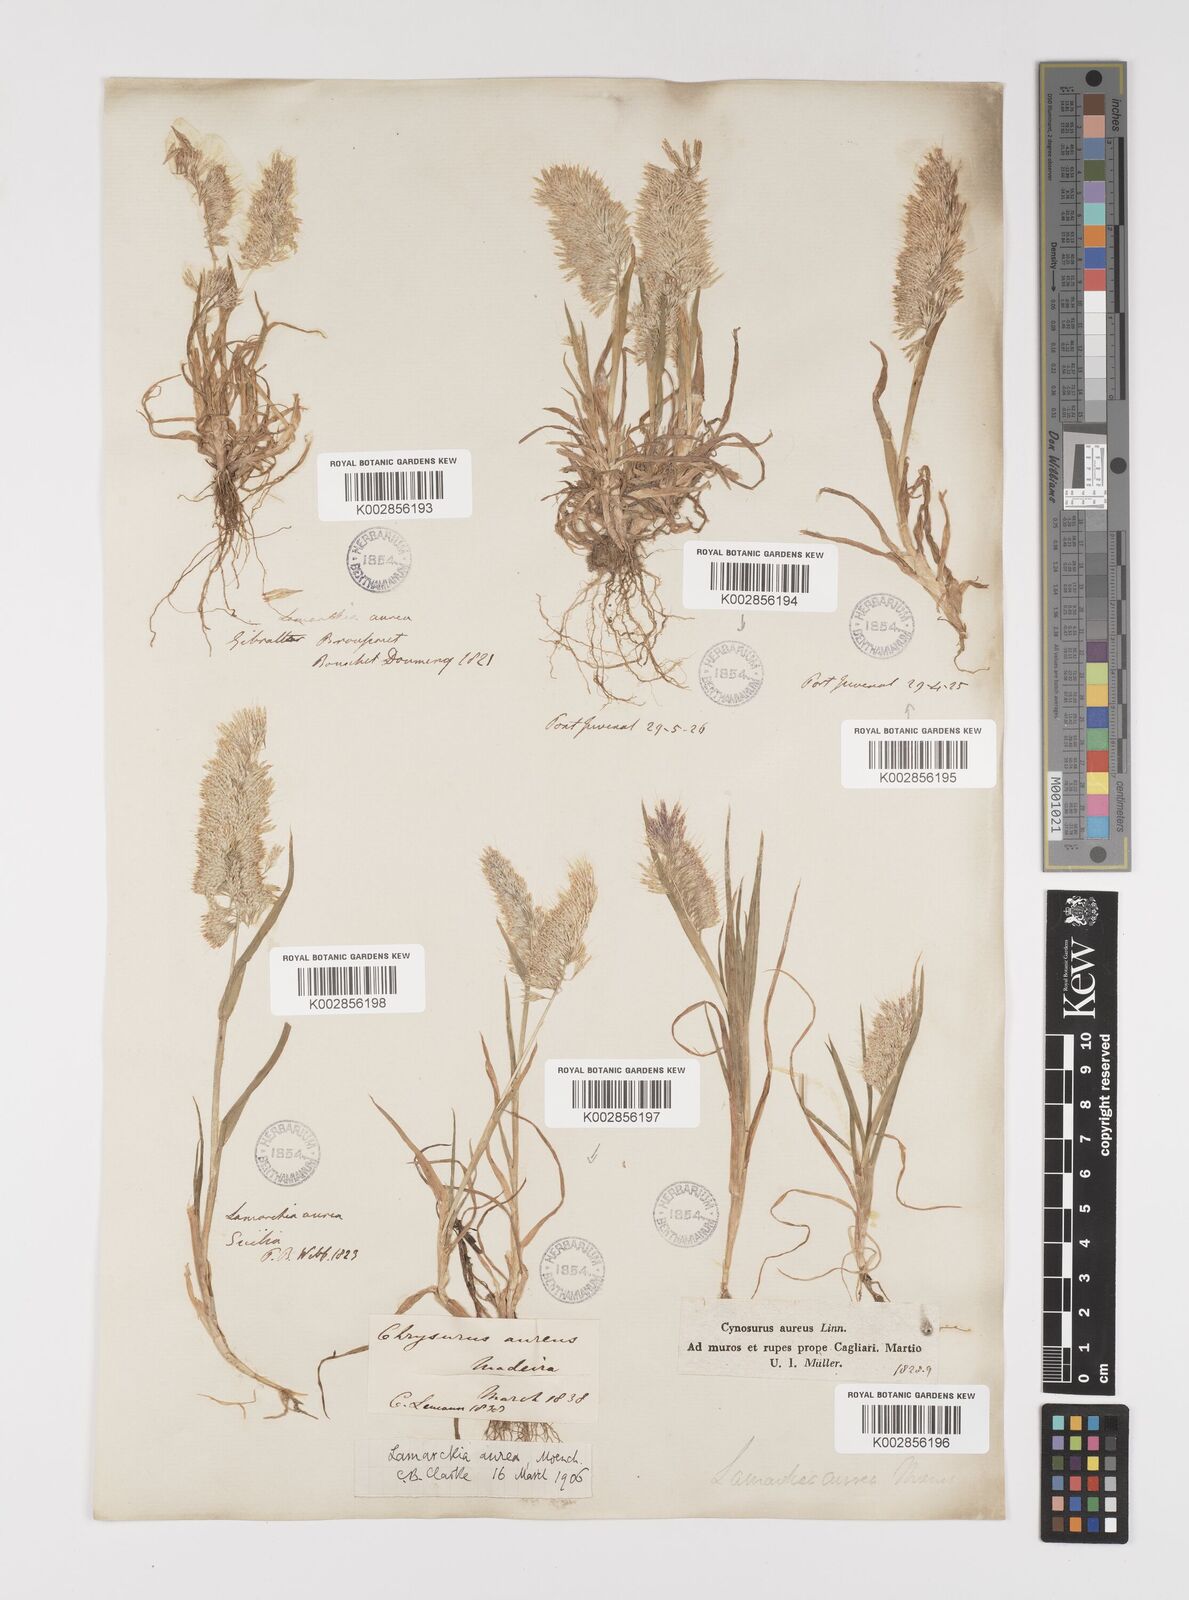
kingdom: Plantae
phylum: Tracheophyta
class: Liliopsida
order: Poales
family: Poaceae
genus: Lamarckia
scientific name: Lamarckia aurea
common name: Golden dog's-tail
